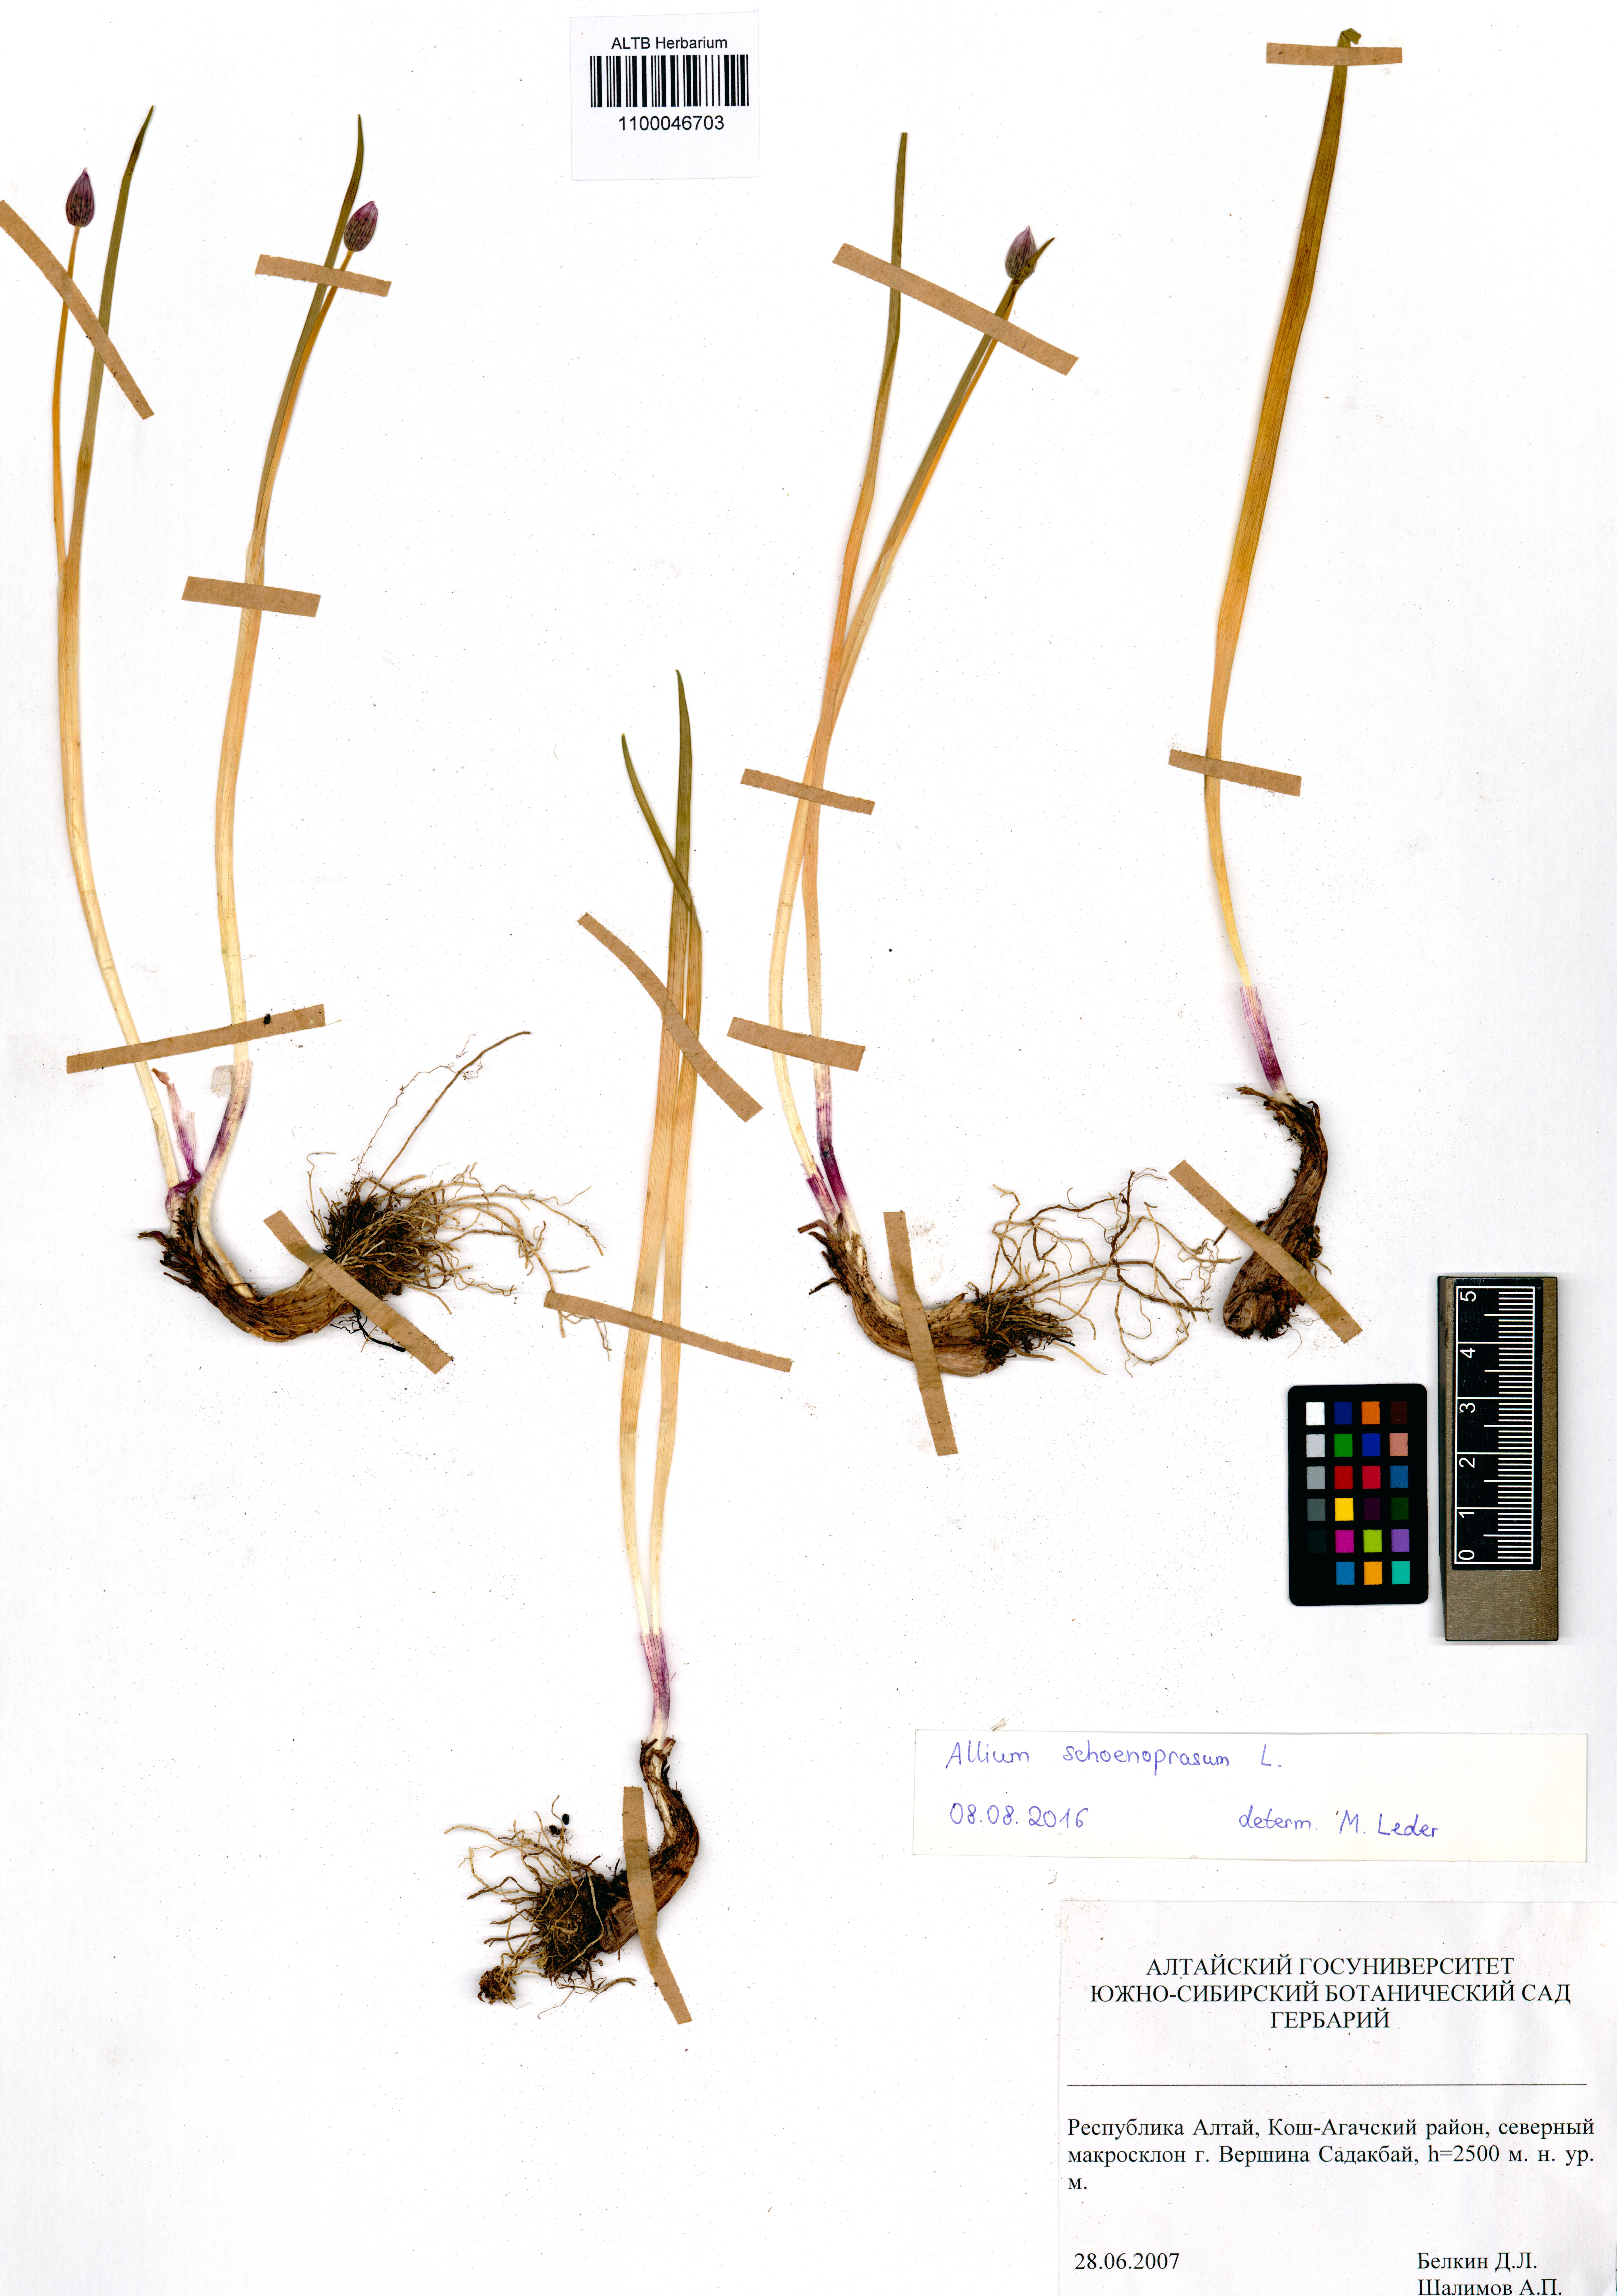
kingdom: Plantae
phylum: Tracheophyta
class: Liliopsida
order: Asparagales
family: Amaryllidaceae
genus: Allium
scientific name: Allium schoenoprasum
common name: Chives
